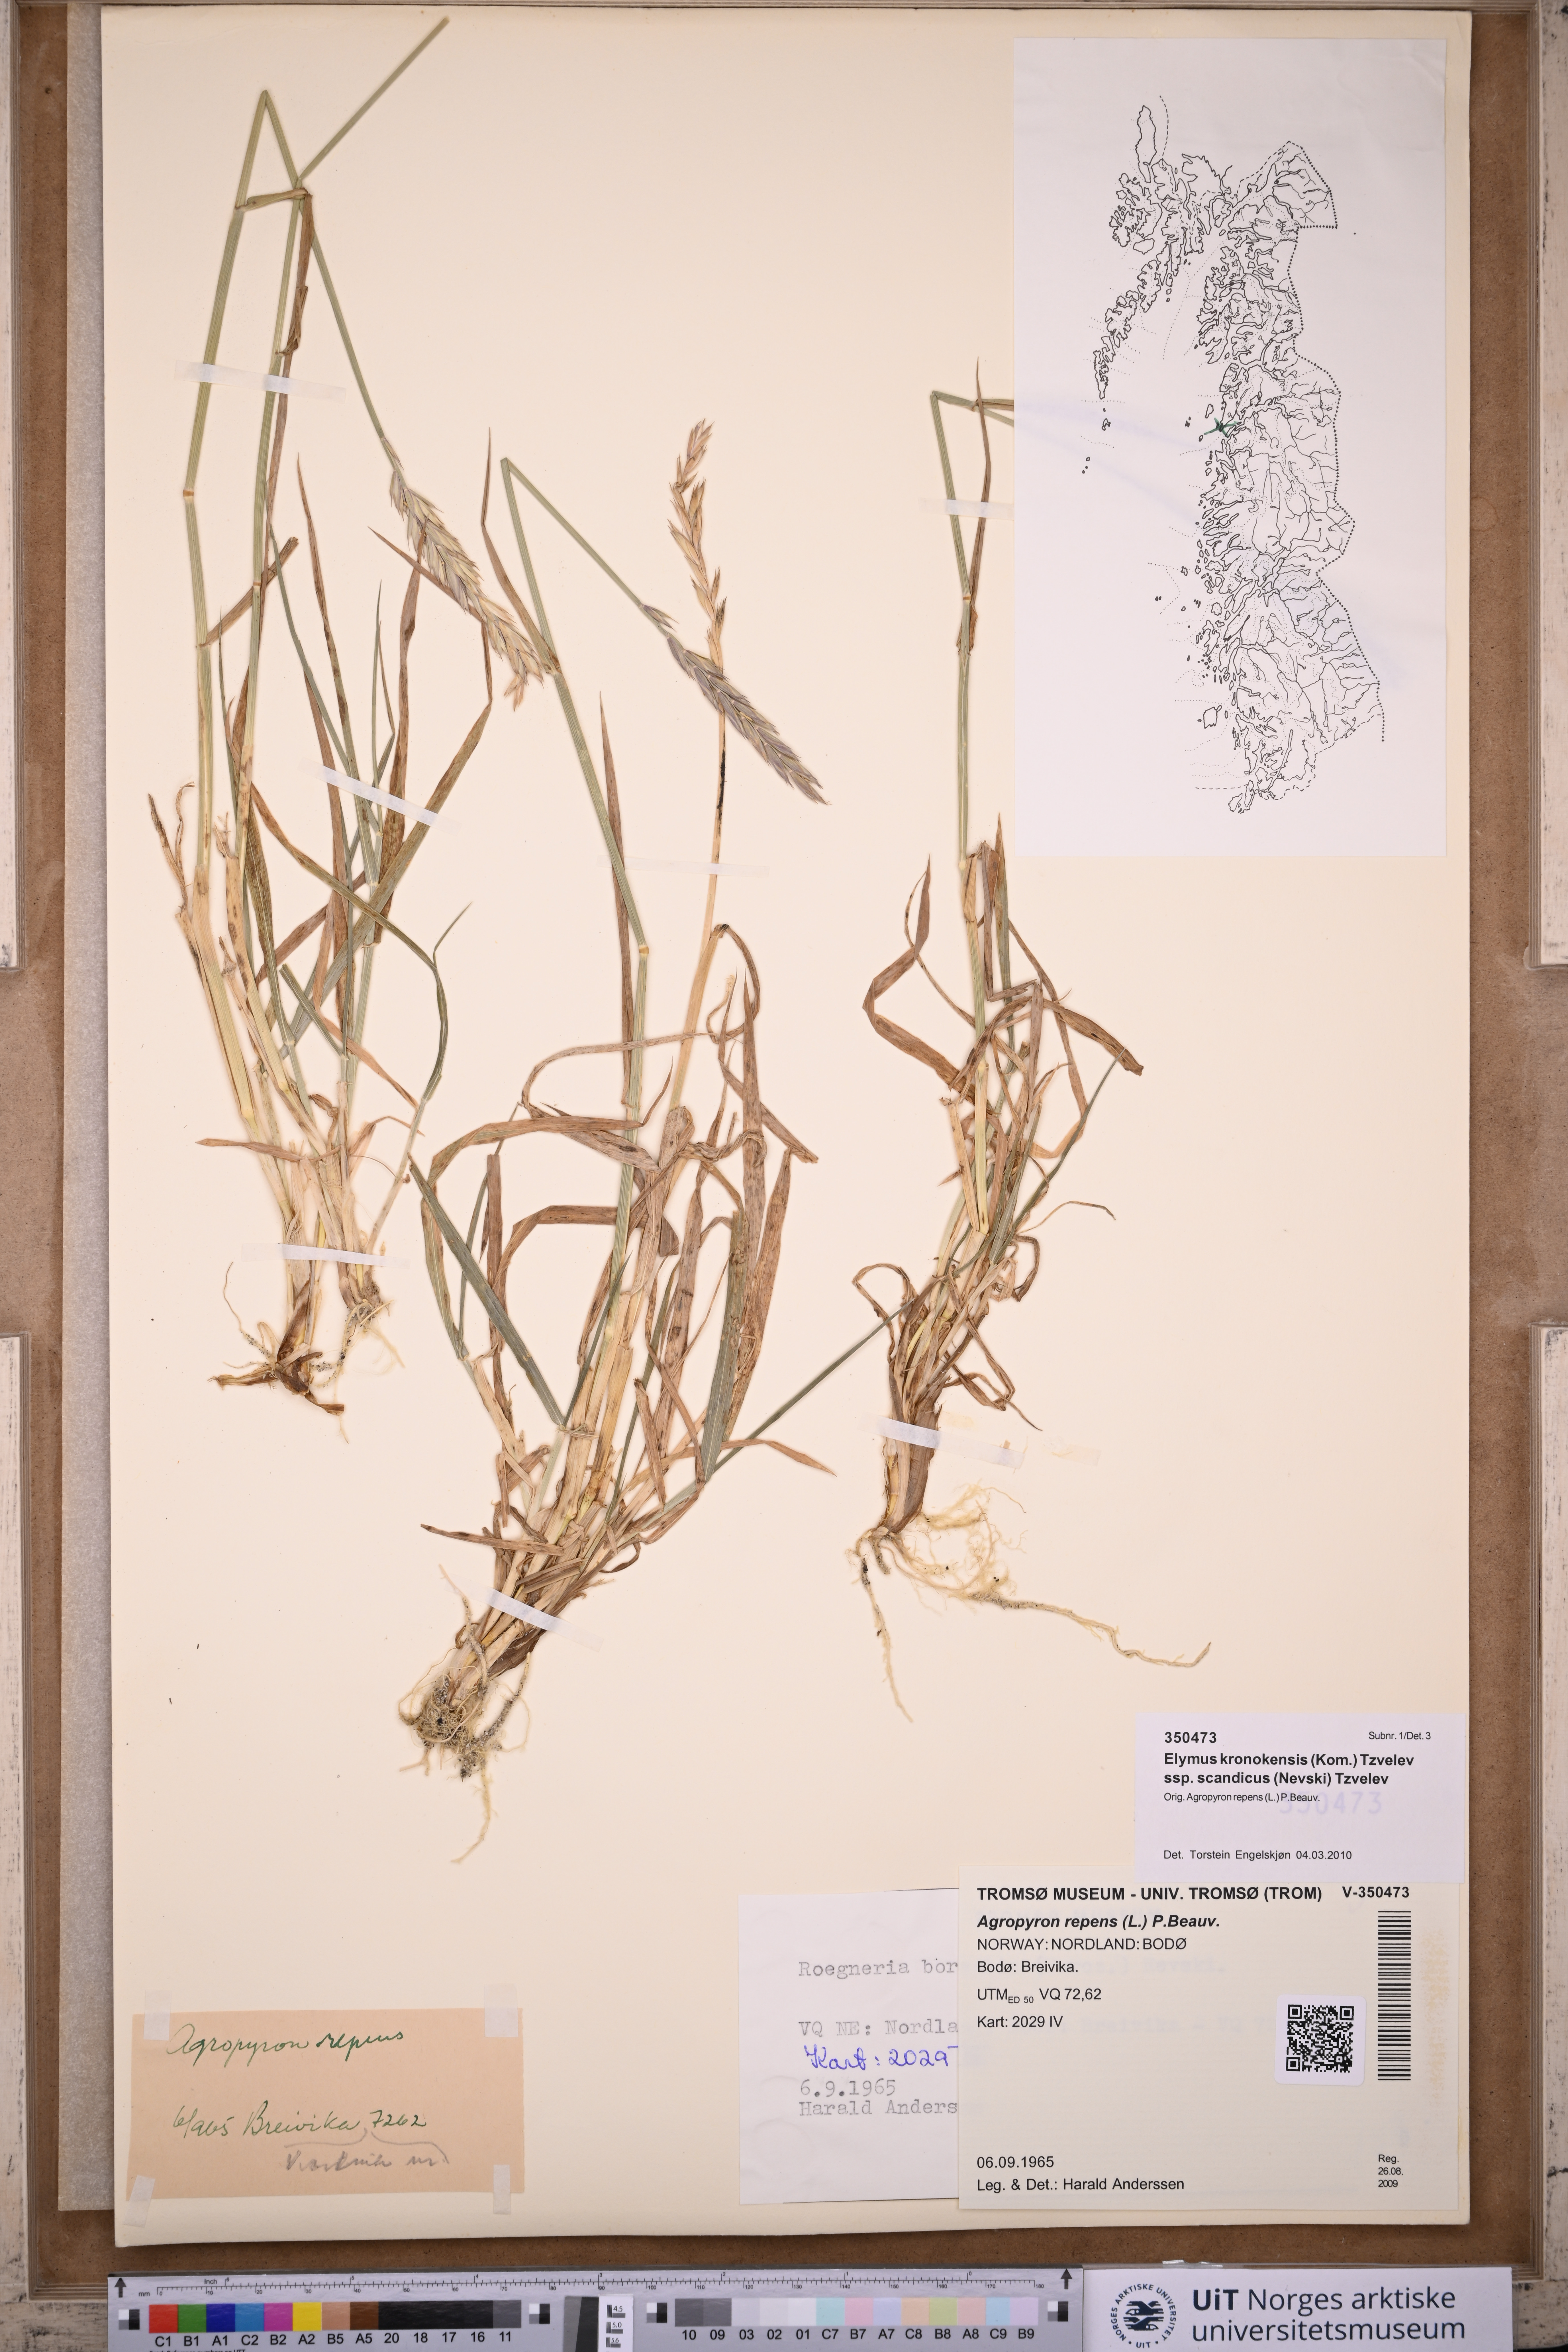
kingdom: Plantae
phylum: Tracheophyta
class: Liliopsida
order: Poales
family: Poaceae
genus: Elymus
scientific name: Elymus macrourus
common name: Northern wheatgrass
